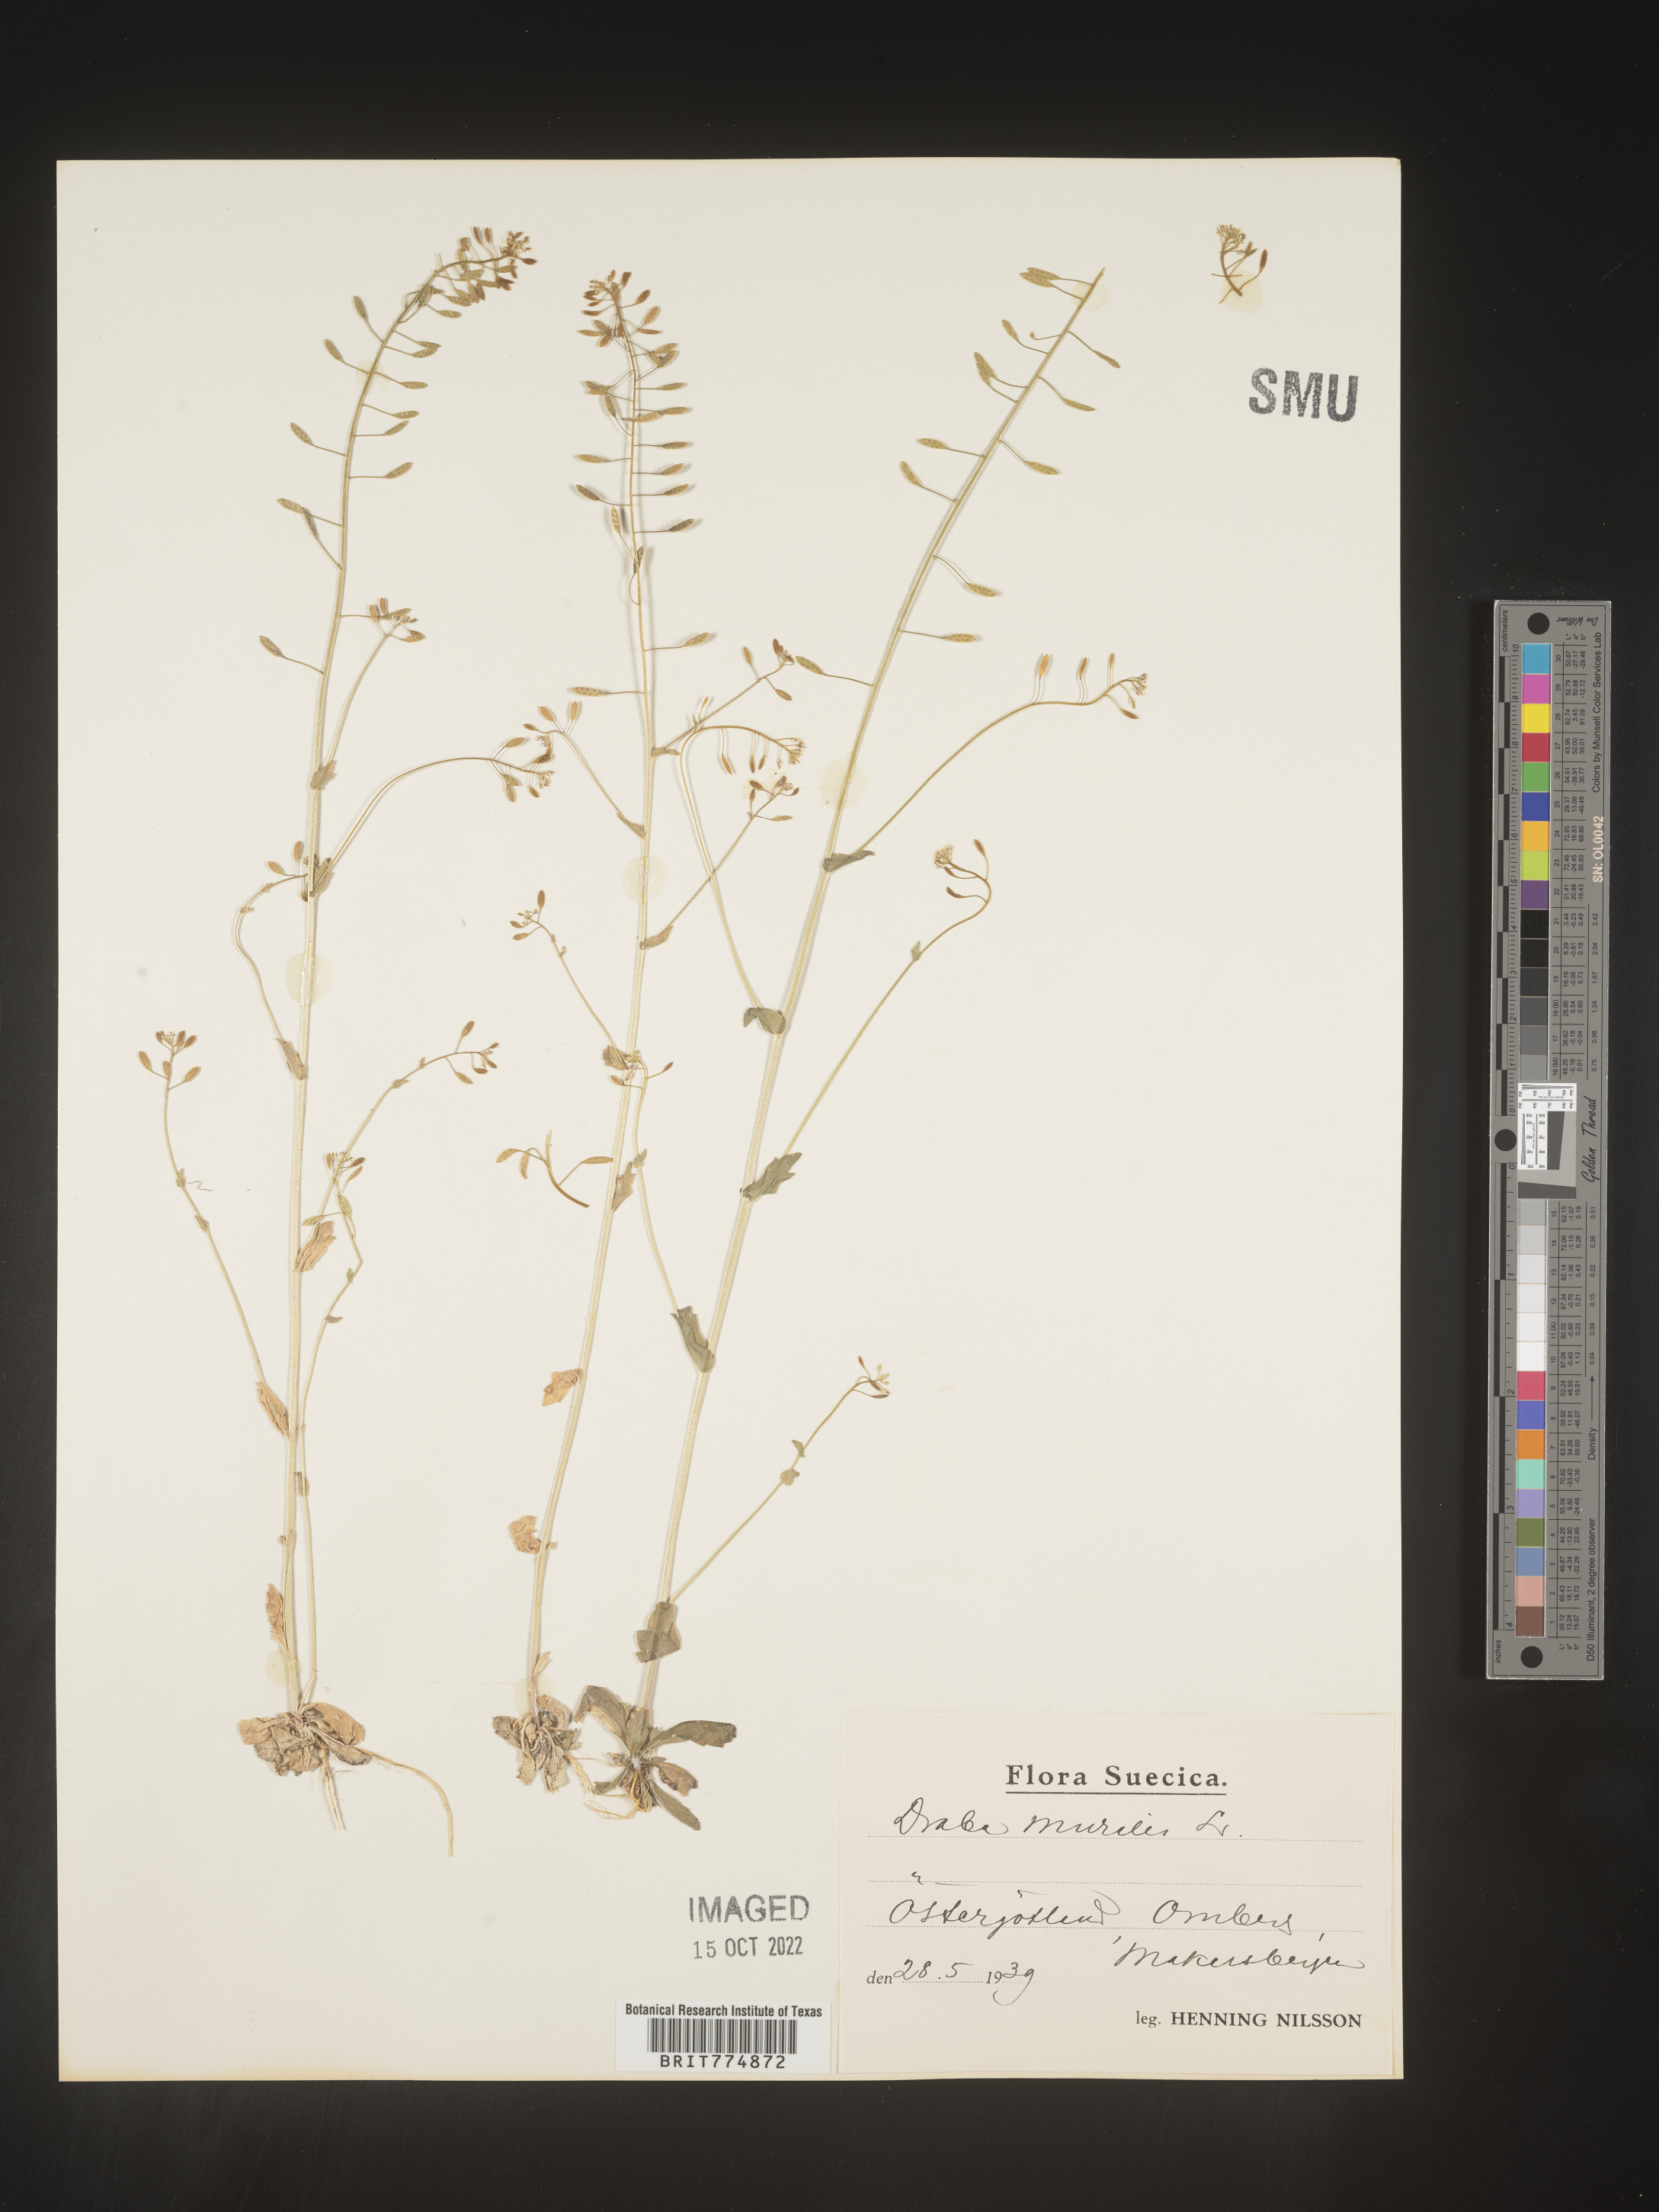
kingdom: Plantae
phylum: Tracheophyta
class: Magnoliopsida
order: Brassicales
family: Brassicaceae
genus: Draba
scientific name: Draba
